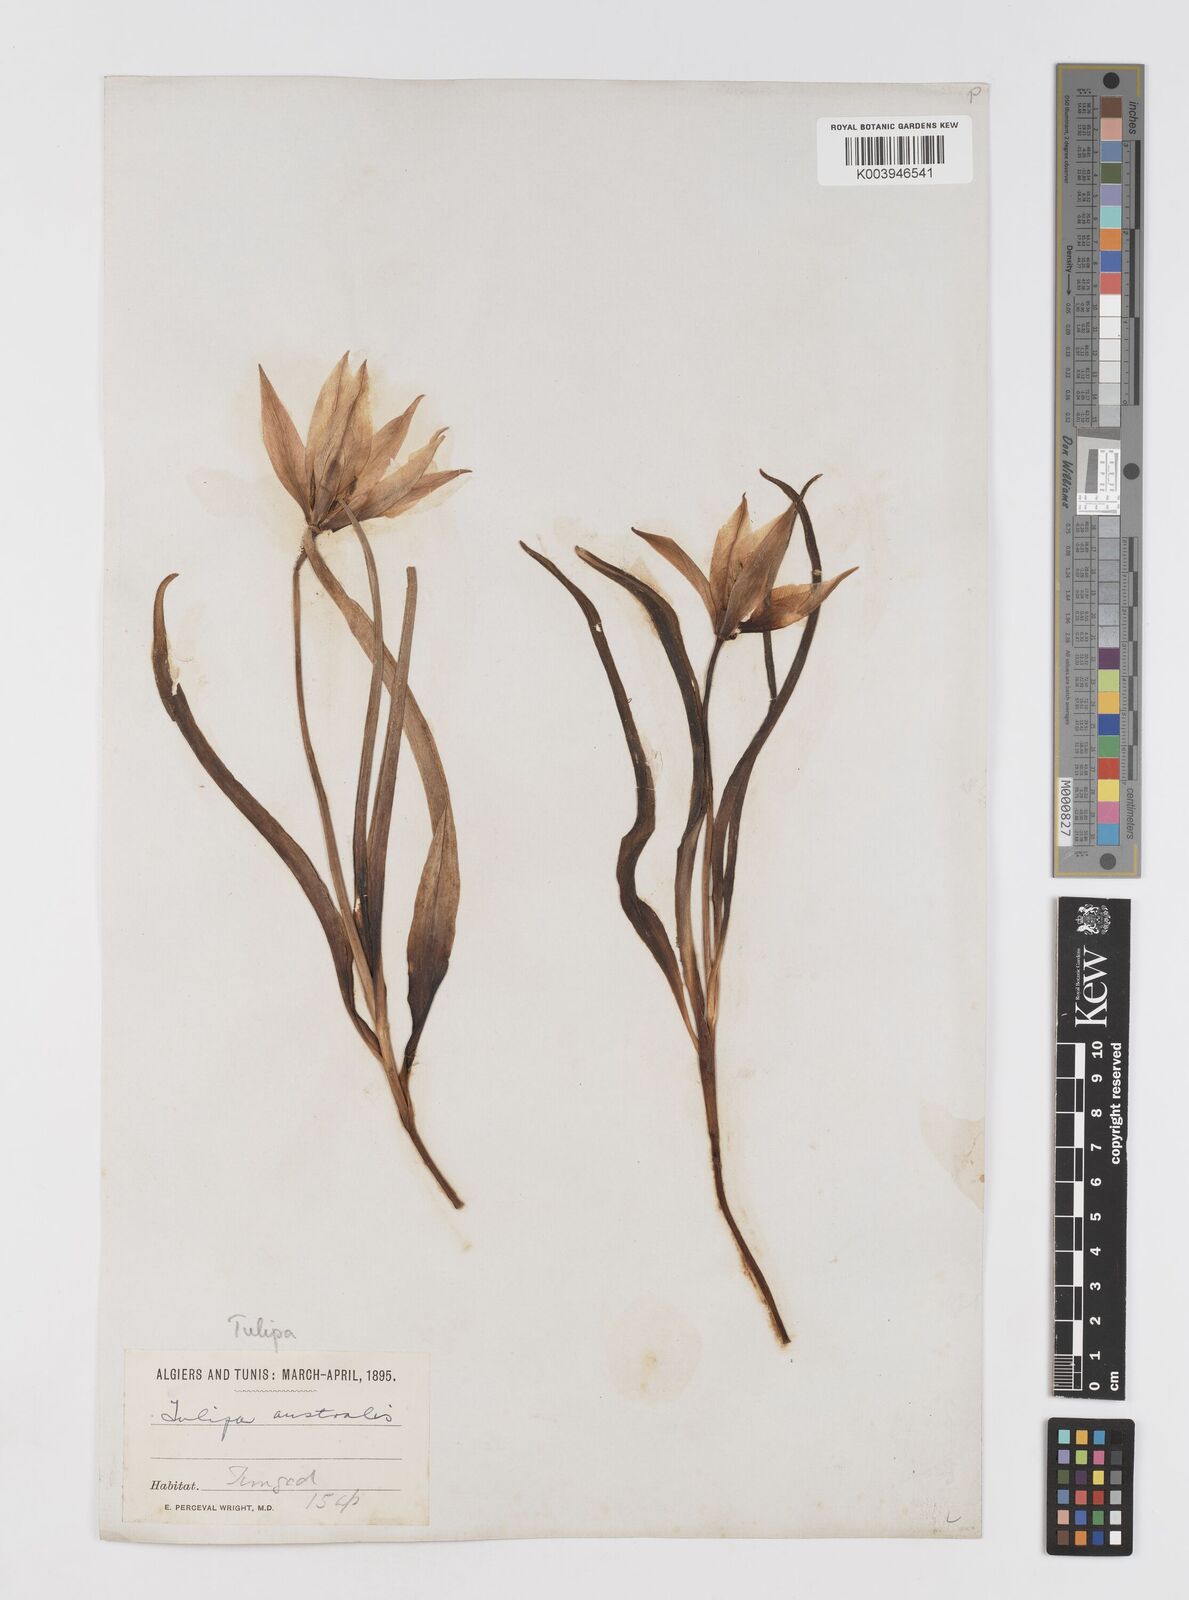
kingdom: Plantae
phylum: Tracheophyta
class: Liliopsida
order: Liliales
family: Liliaceae
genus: Tulipa
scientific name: Tulipa sylvestris
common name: Wild tulip
